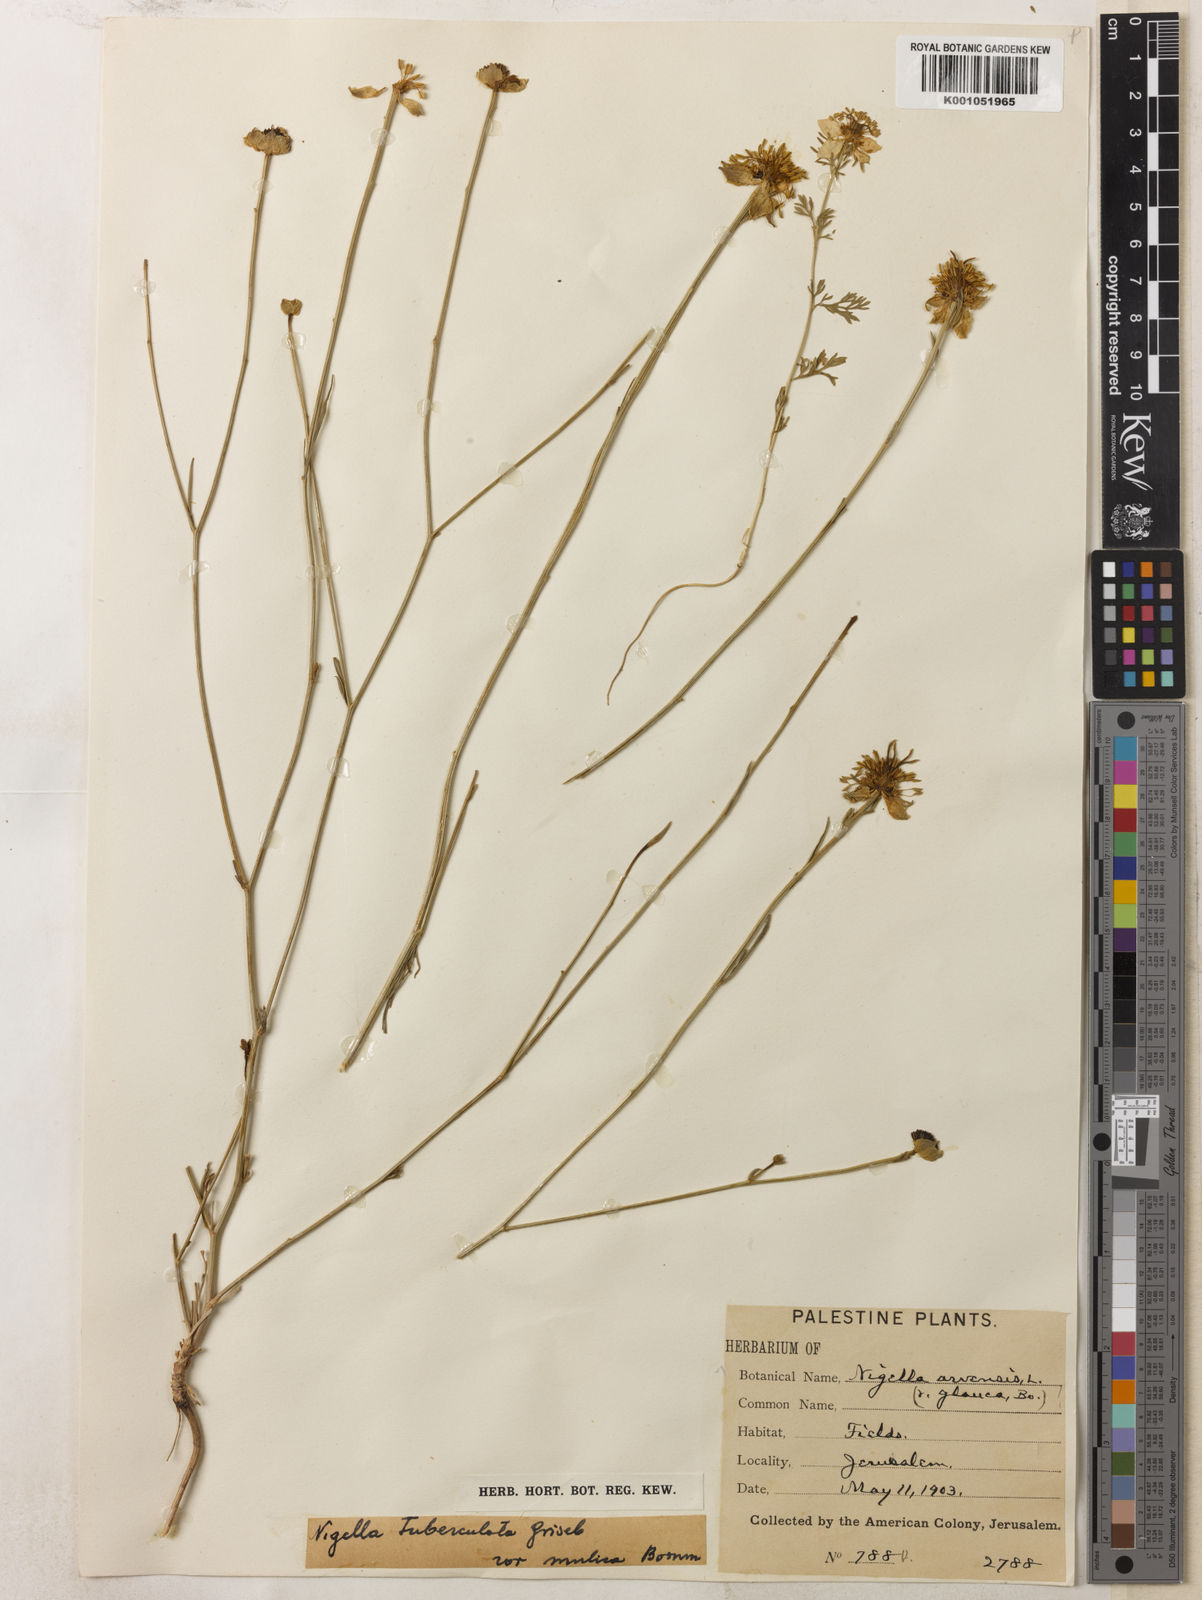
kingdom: Plantae
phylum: Tracheophyta
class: Magnoliopsida
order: Ranunculales
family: Ranunculaceae
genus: Nigella
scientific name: Nigella arvensis
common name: Wild fennel-flower
